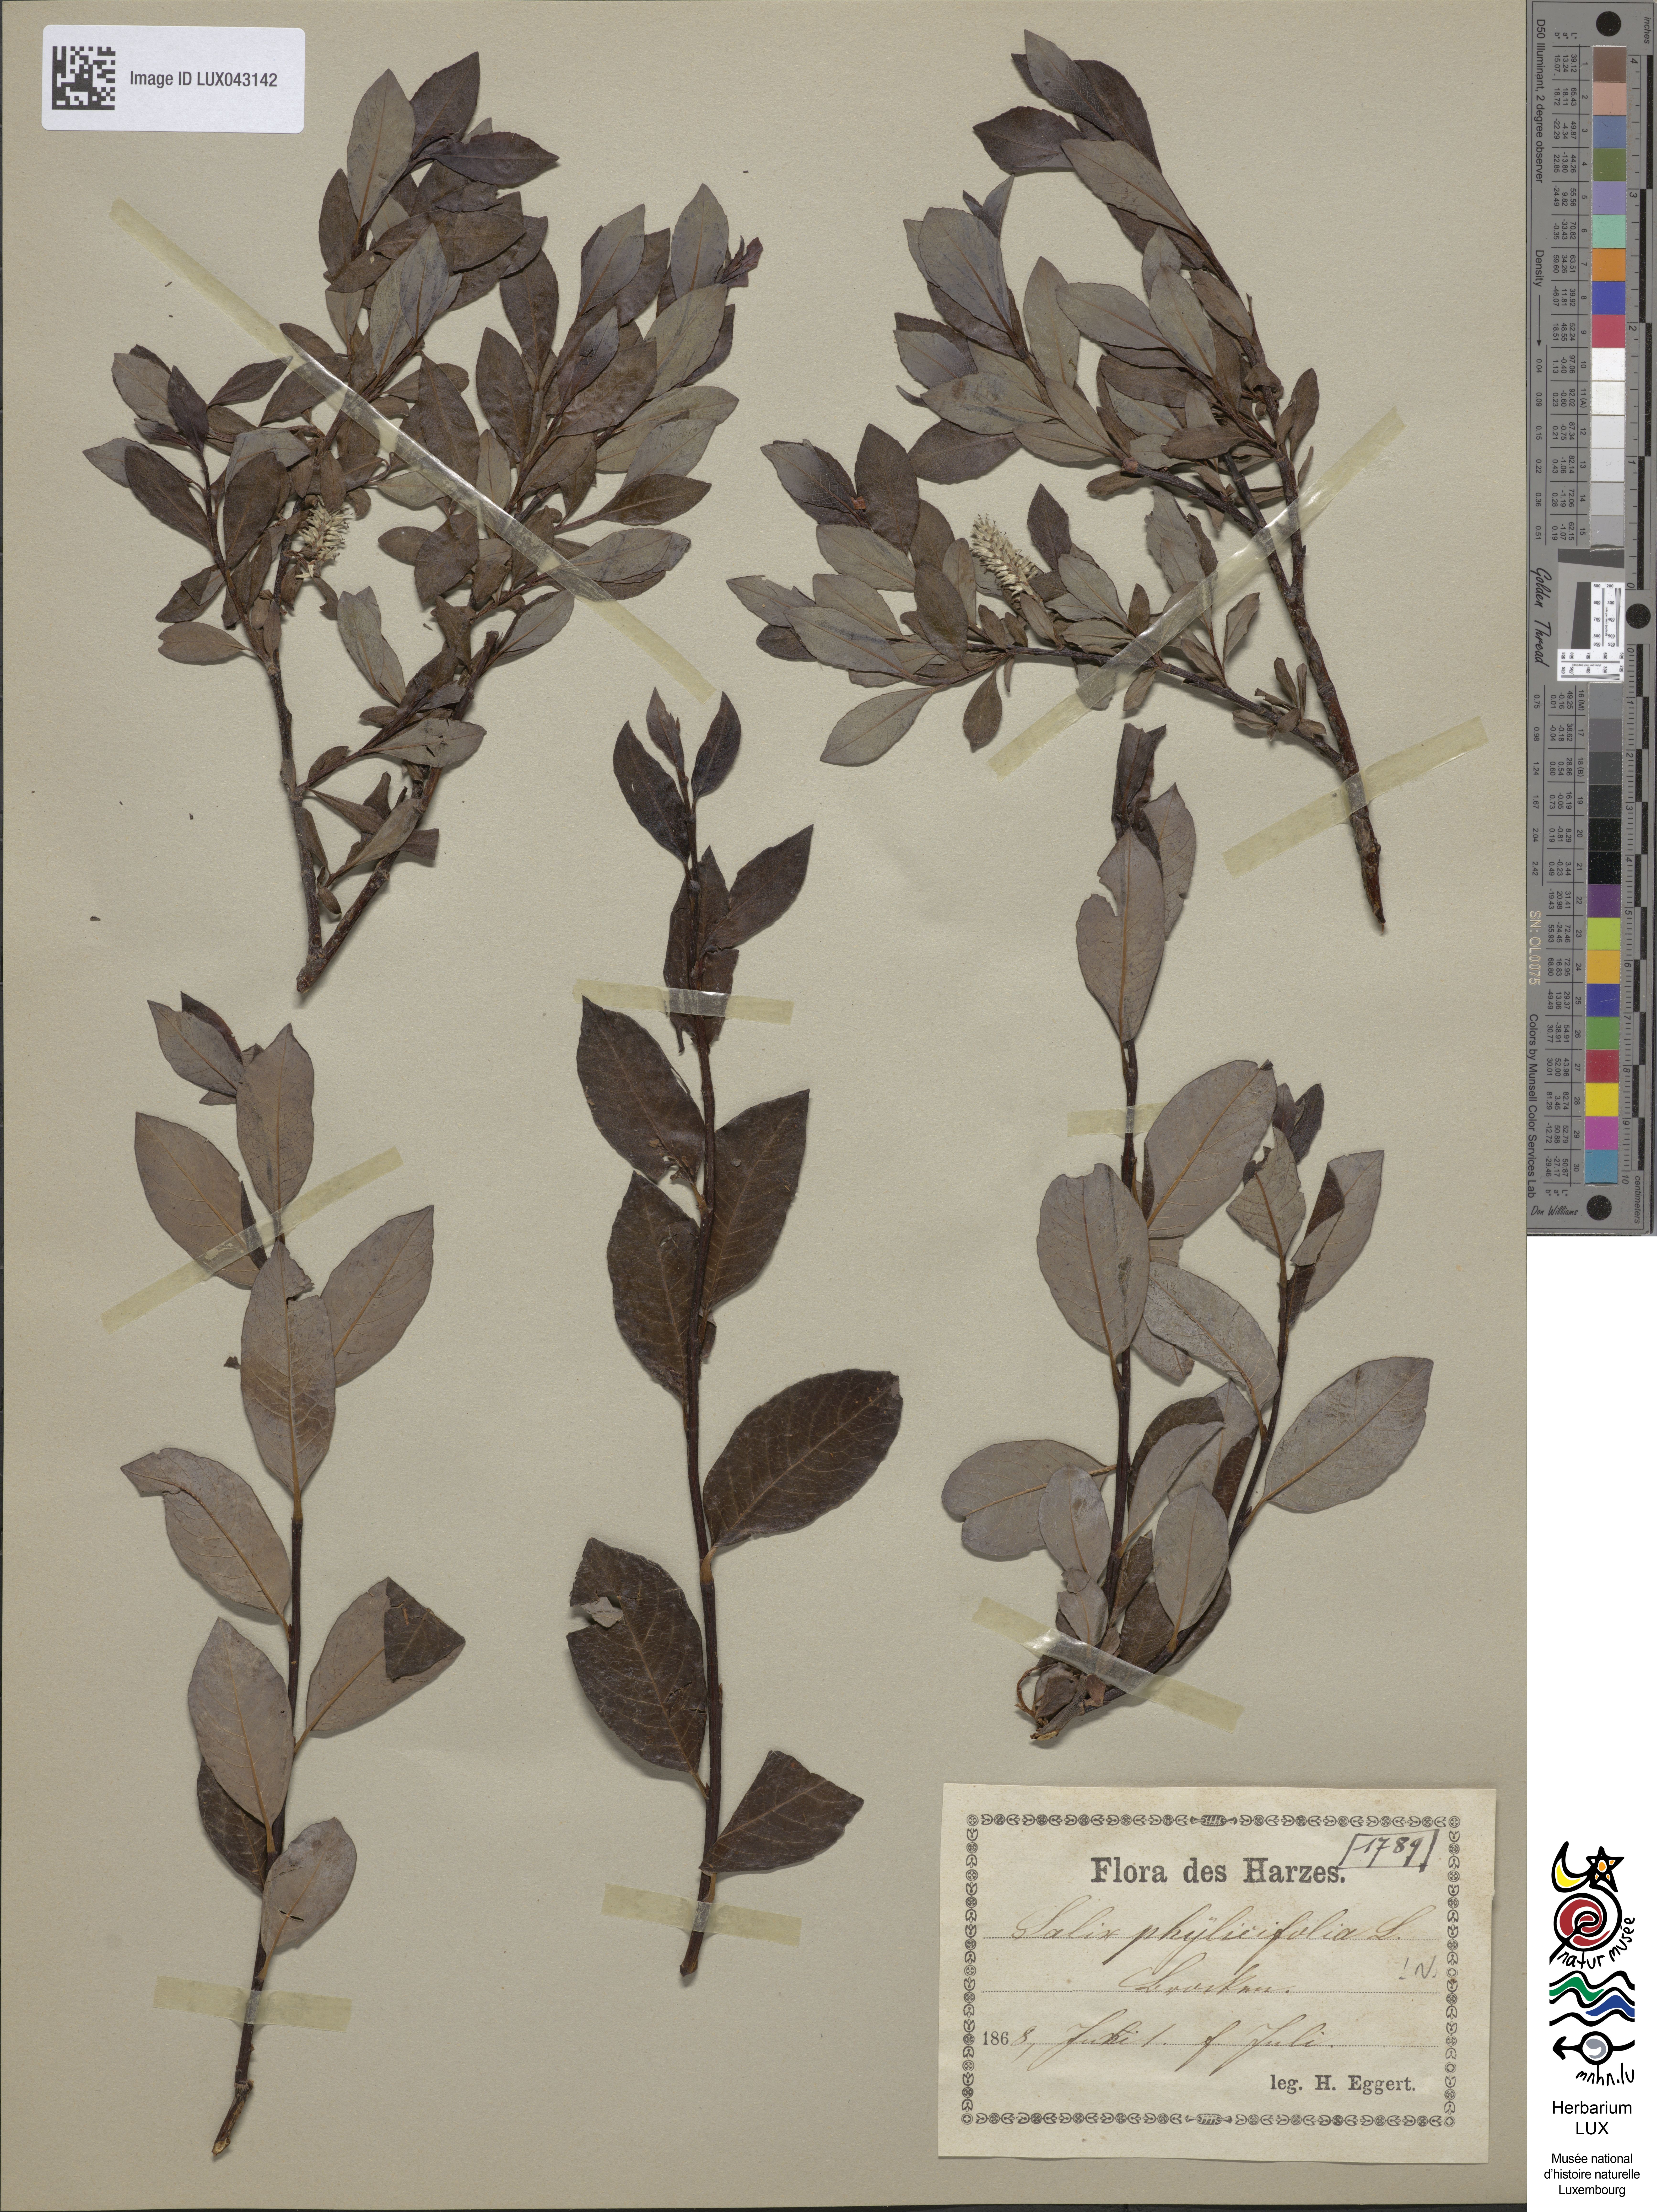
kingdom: Plantae
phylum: Tracheophyta
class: Magnoliopsida
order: Malpighiales
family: Salicaceae
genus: Salix
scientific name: Salix bicolor
